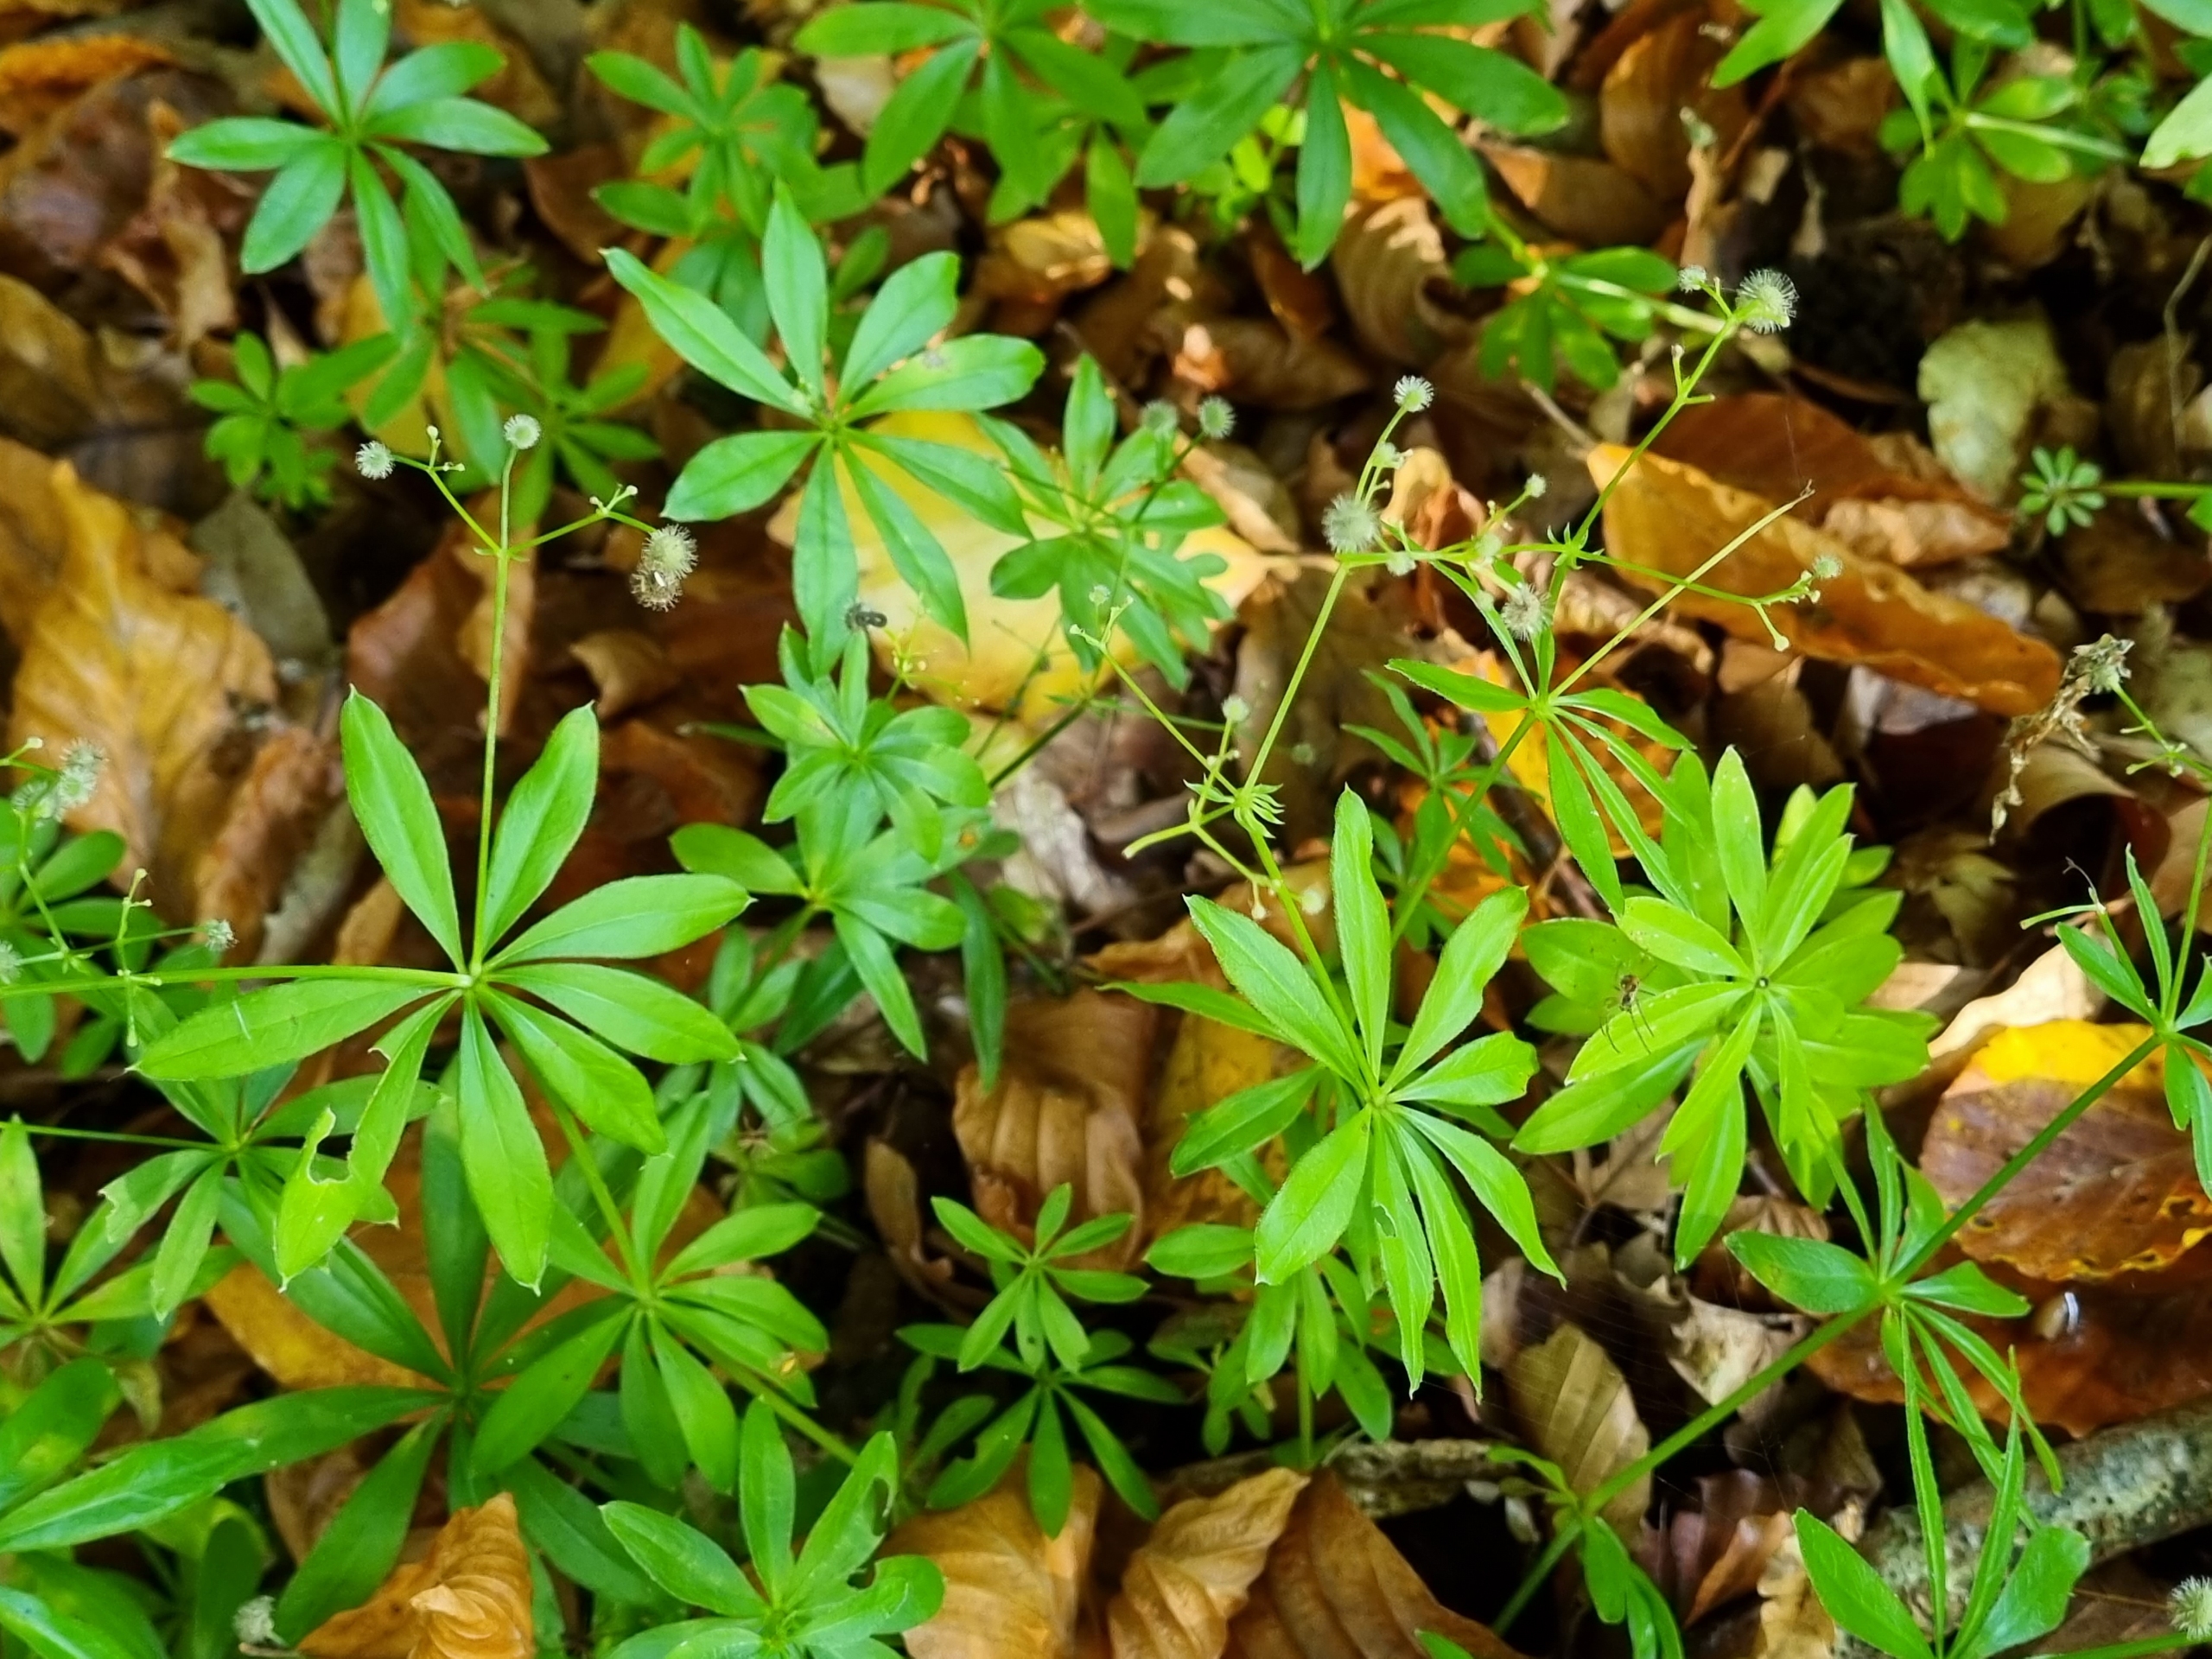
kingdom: Plantae
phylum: Tracheophyta
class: Magnoliopsida
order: Gentianales
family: Rubiaceae
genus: Galium
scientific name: Galium odoratum
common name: Skovmærke
